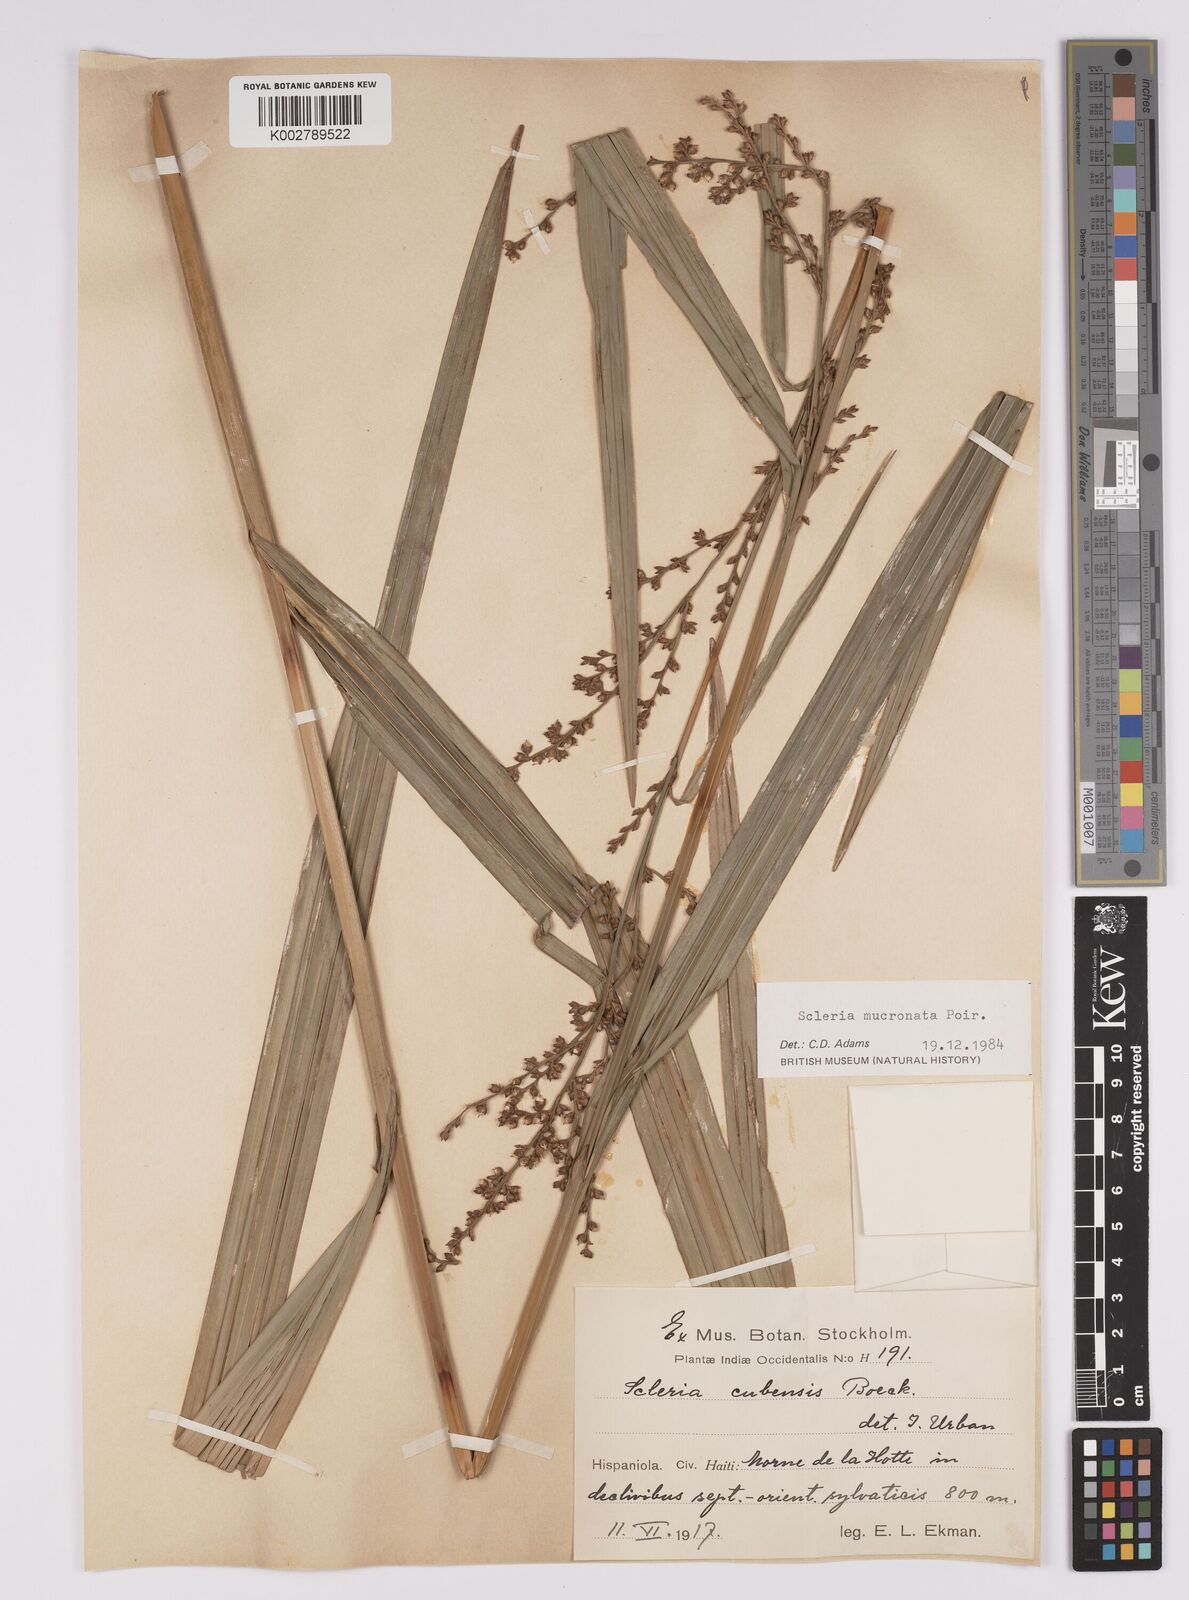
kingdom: Plantae
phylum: Tracheophyta
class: Liliopsida
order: Poales
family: Cyperaceae
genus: Scleria
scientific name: Scleria mucronata
